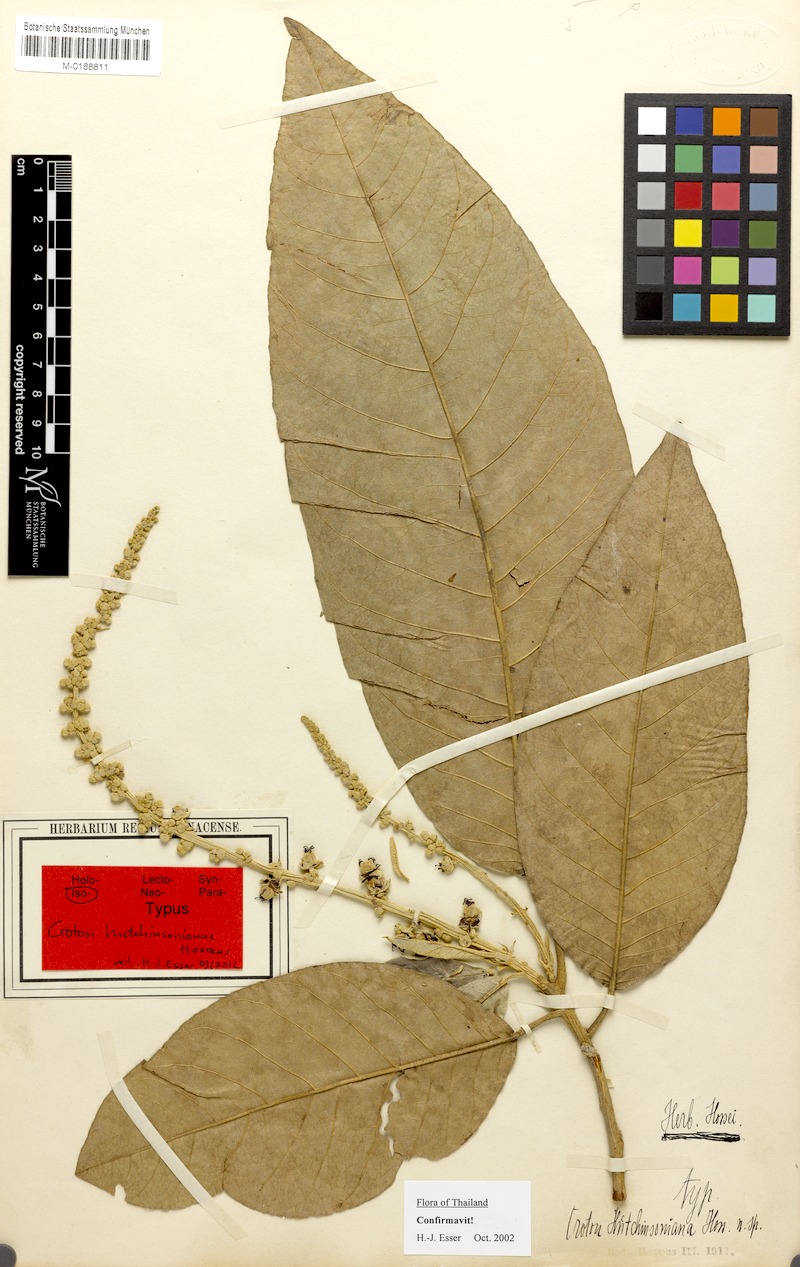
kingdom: Plantae
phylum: Tracheophyta
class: Magnoliopsida
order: Malpighiales
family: Euphorbiaceae
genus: Croton
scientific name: Croton hutchinsonianus
